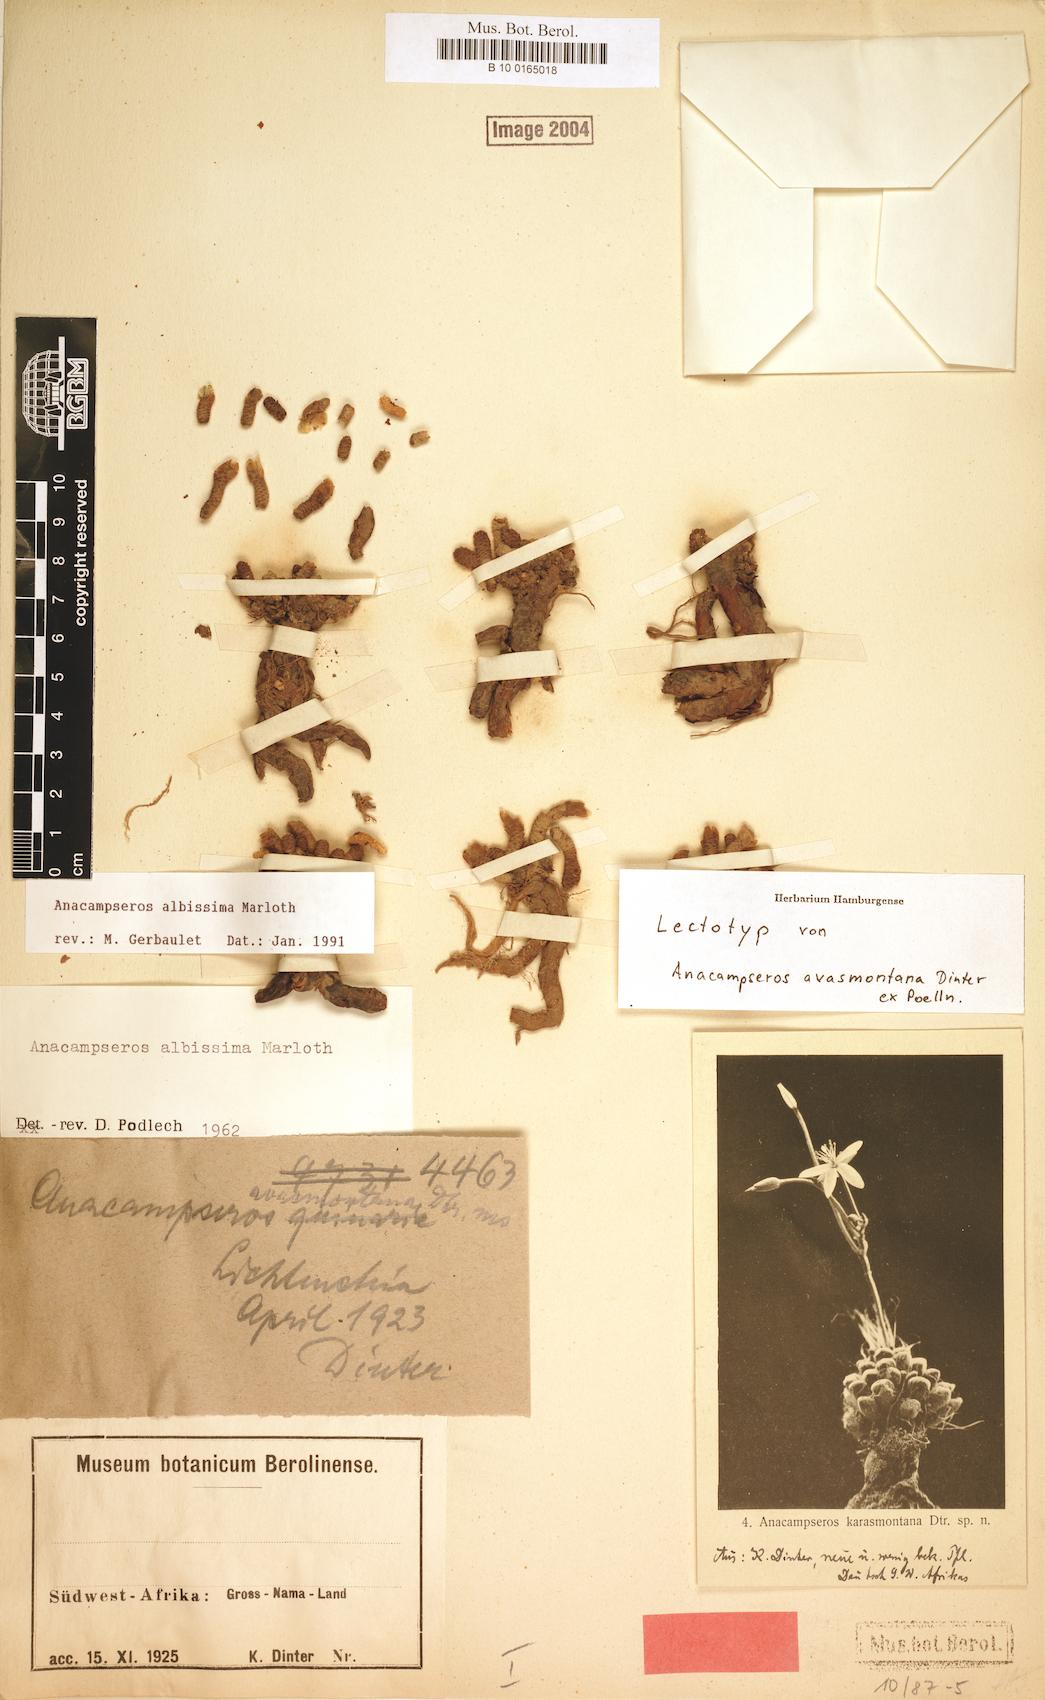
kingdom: Plantae
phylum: Tracheophyta
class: Magnoliopsida
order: Caryophyllales
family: Anacampserotaceae
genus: Avonia
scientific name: Avonia albissima
